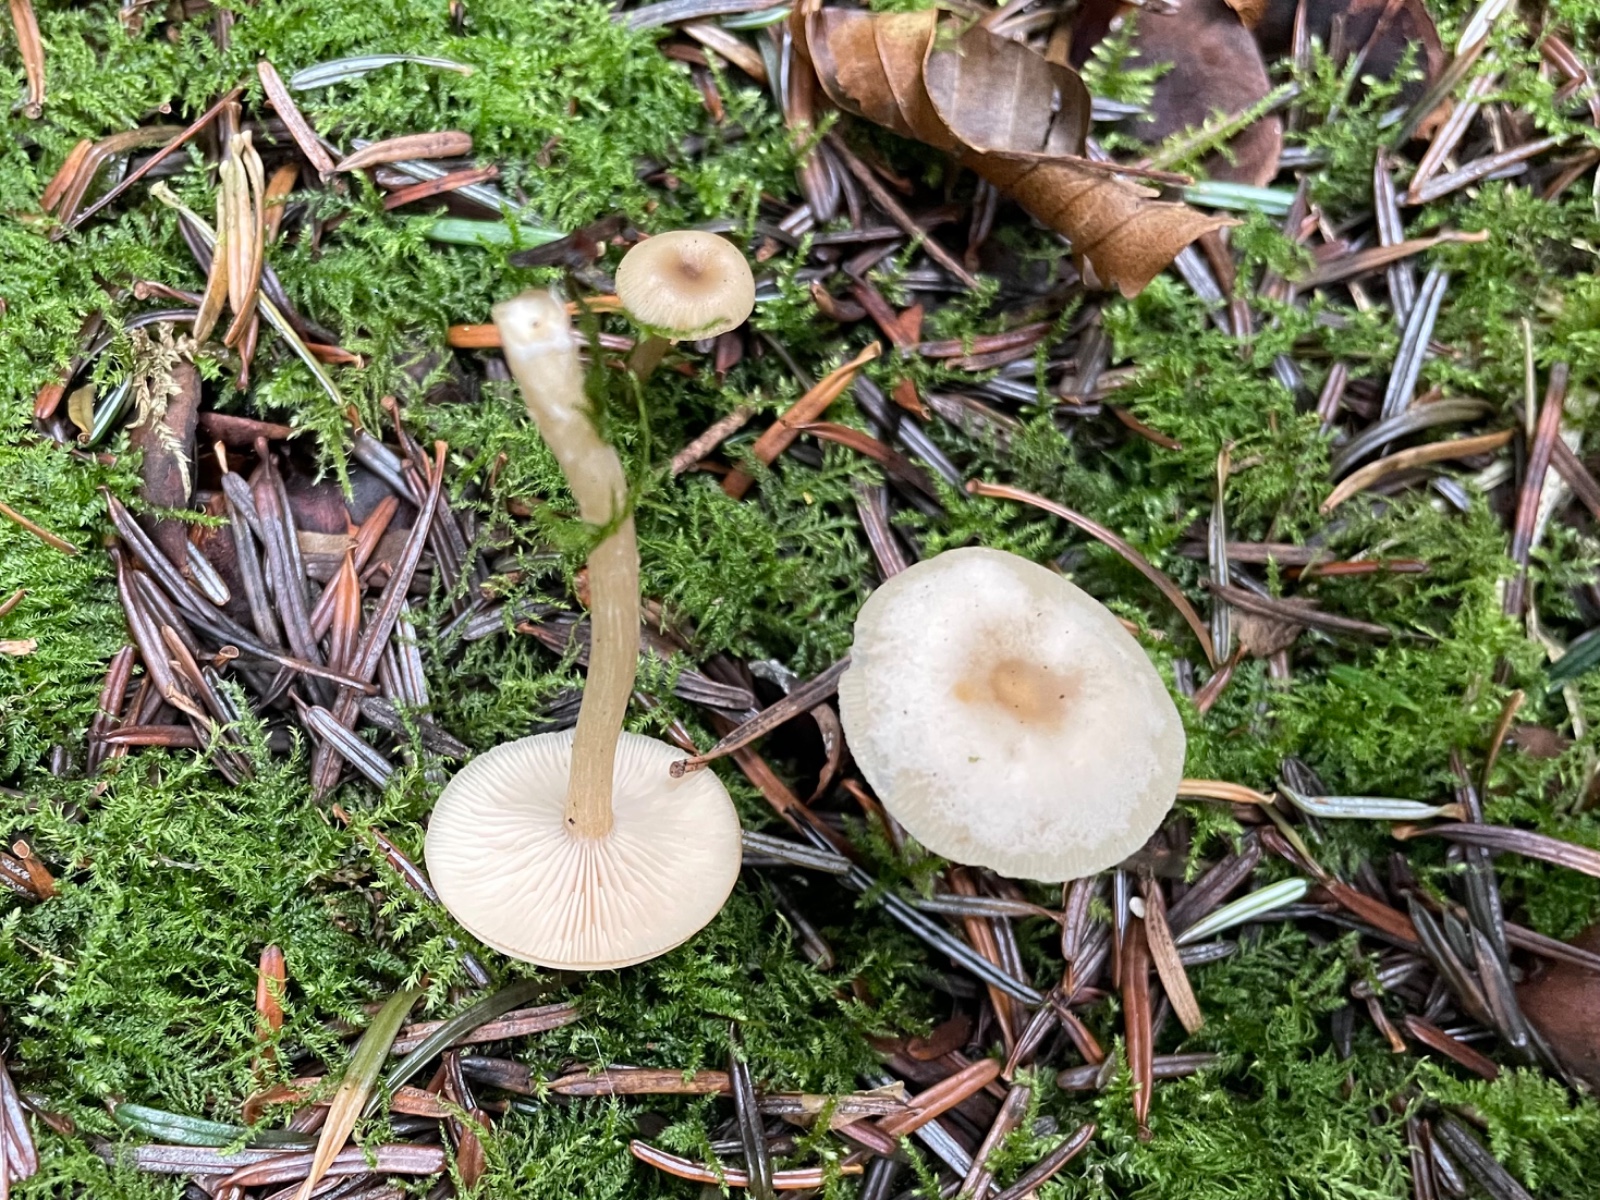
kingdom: Fungi
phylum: Basidiomycota
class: Agaricomycetes
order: Agaricales
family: Tricholomataceae
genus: Clitocybe
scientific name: Clitocybe fragrans
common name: vellugtende tragthat
